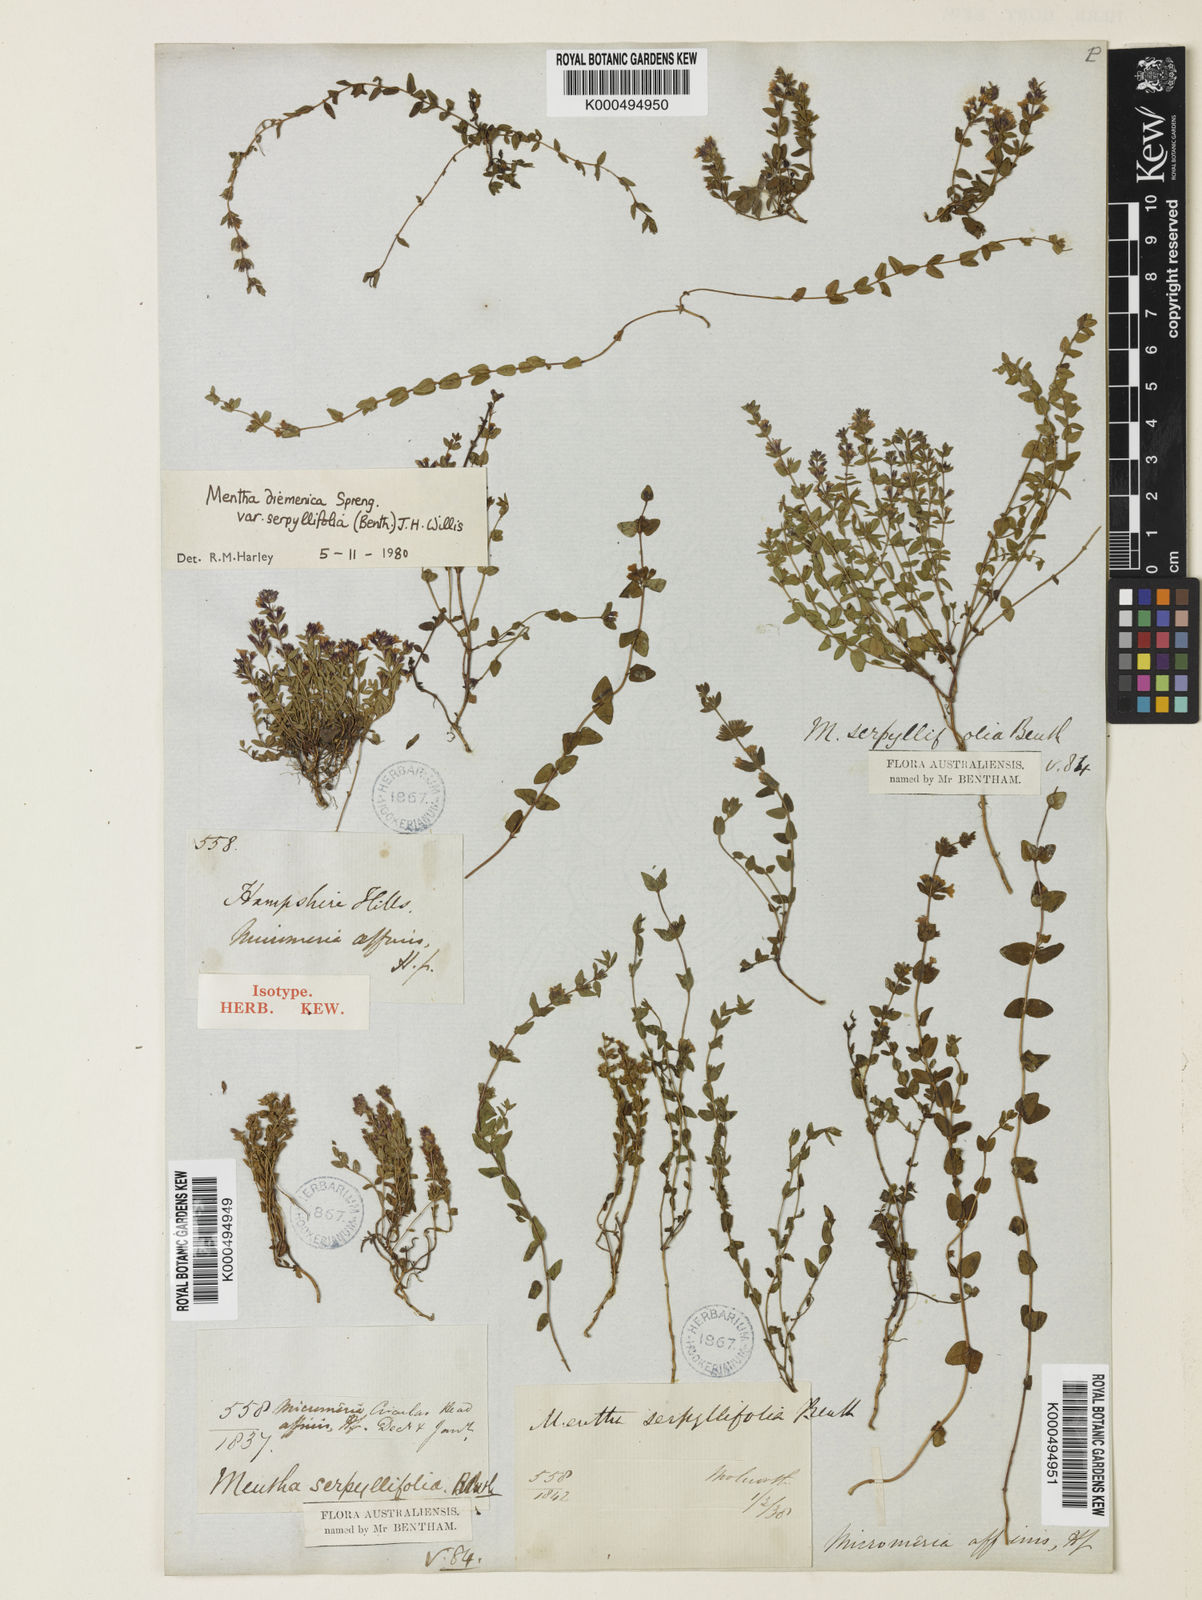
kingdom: Plantae
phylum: Tracheophyta
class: Magnoliopsida
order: Lamiales
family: Lamiaceae
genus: Mentha
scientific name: Mentha diemenica
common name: Wild mint
